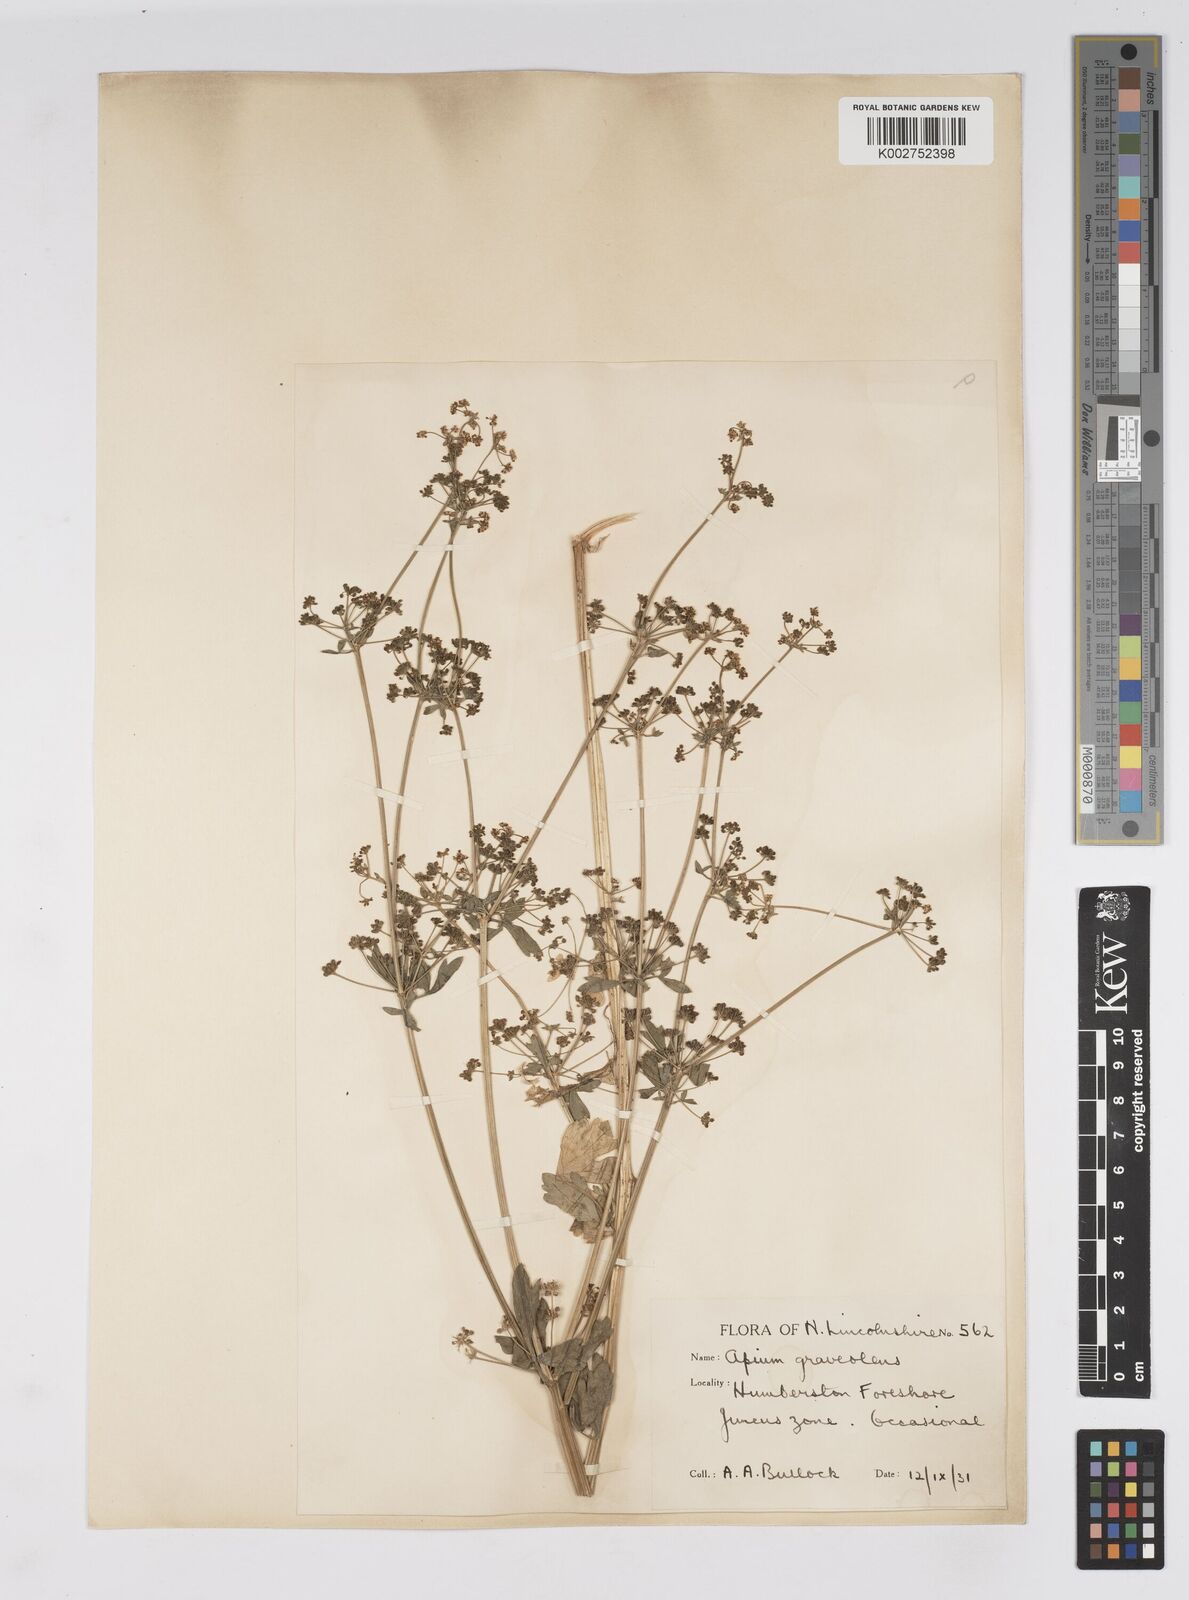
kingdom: Plantae
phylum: Tracheophyta
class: Magnoliopsida
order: Apiales
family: Apiaceae
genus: Apium
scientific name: Apium graveolens
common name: Wild celery
